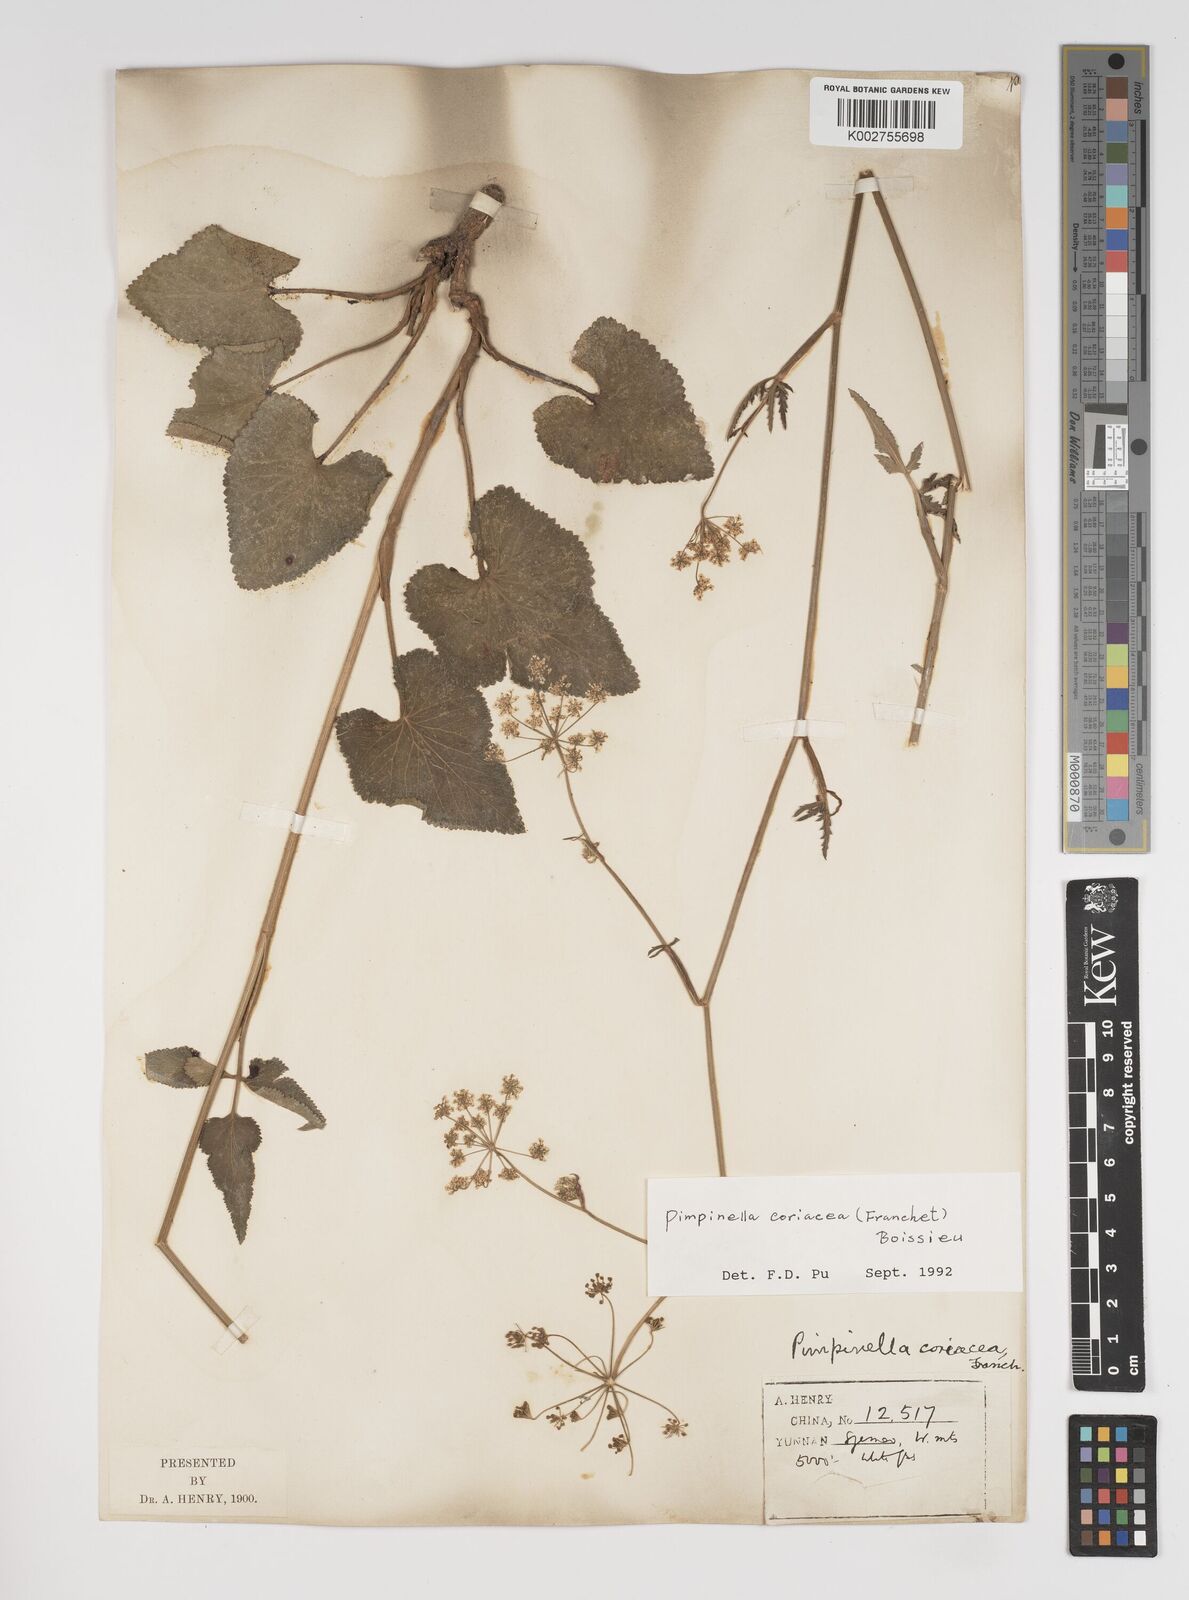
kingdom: Plantae
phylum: Tracheophyta
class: Magnoliopsida
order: Apiales
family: Apiaceae
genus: Pimpinella
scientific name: Pimpinella coriacea
